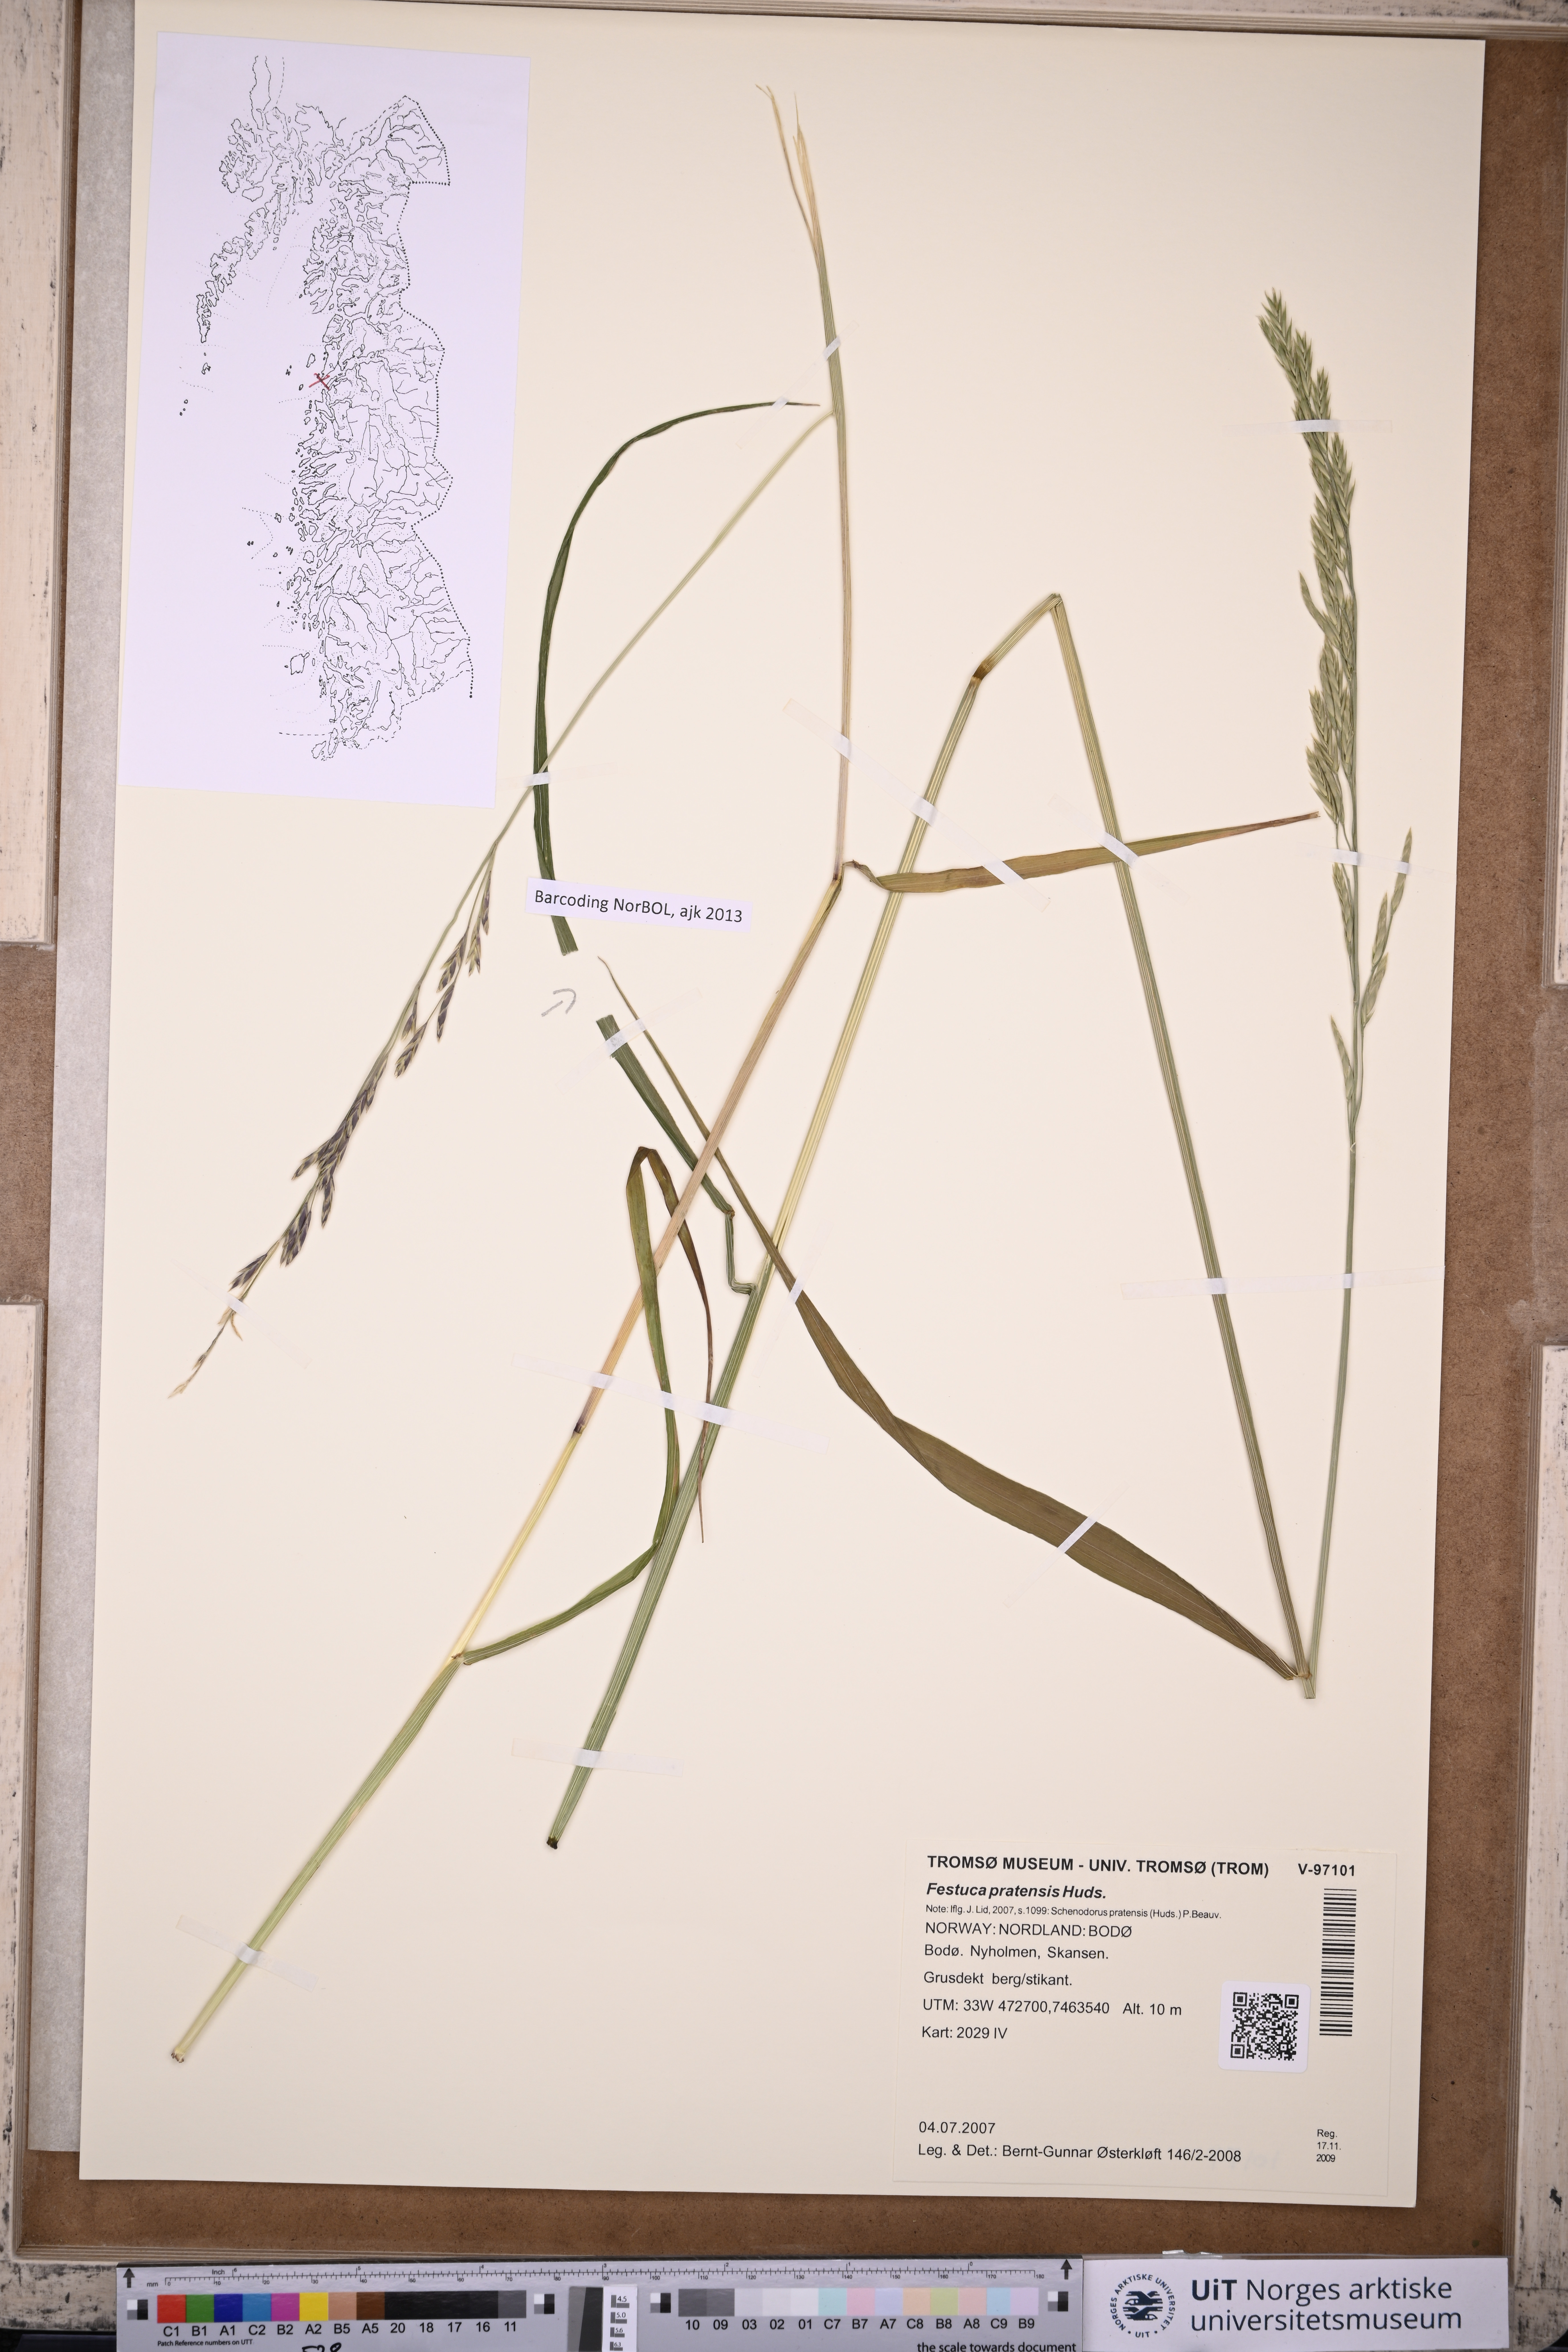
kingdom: Plantae
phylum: Tracheophyta
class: Liliopsida
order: Poales
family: Poaceae
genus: Lolium
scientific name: Lolium pratense
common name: Dover grass
